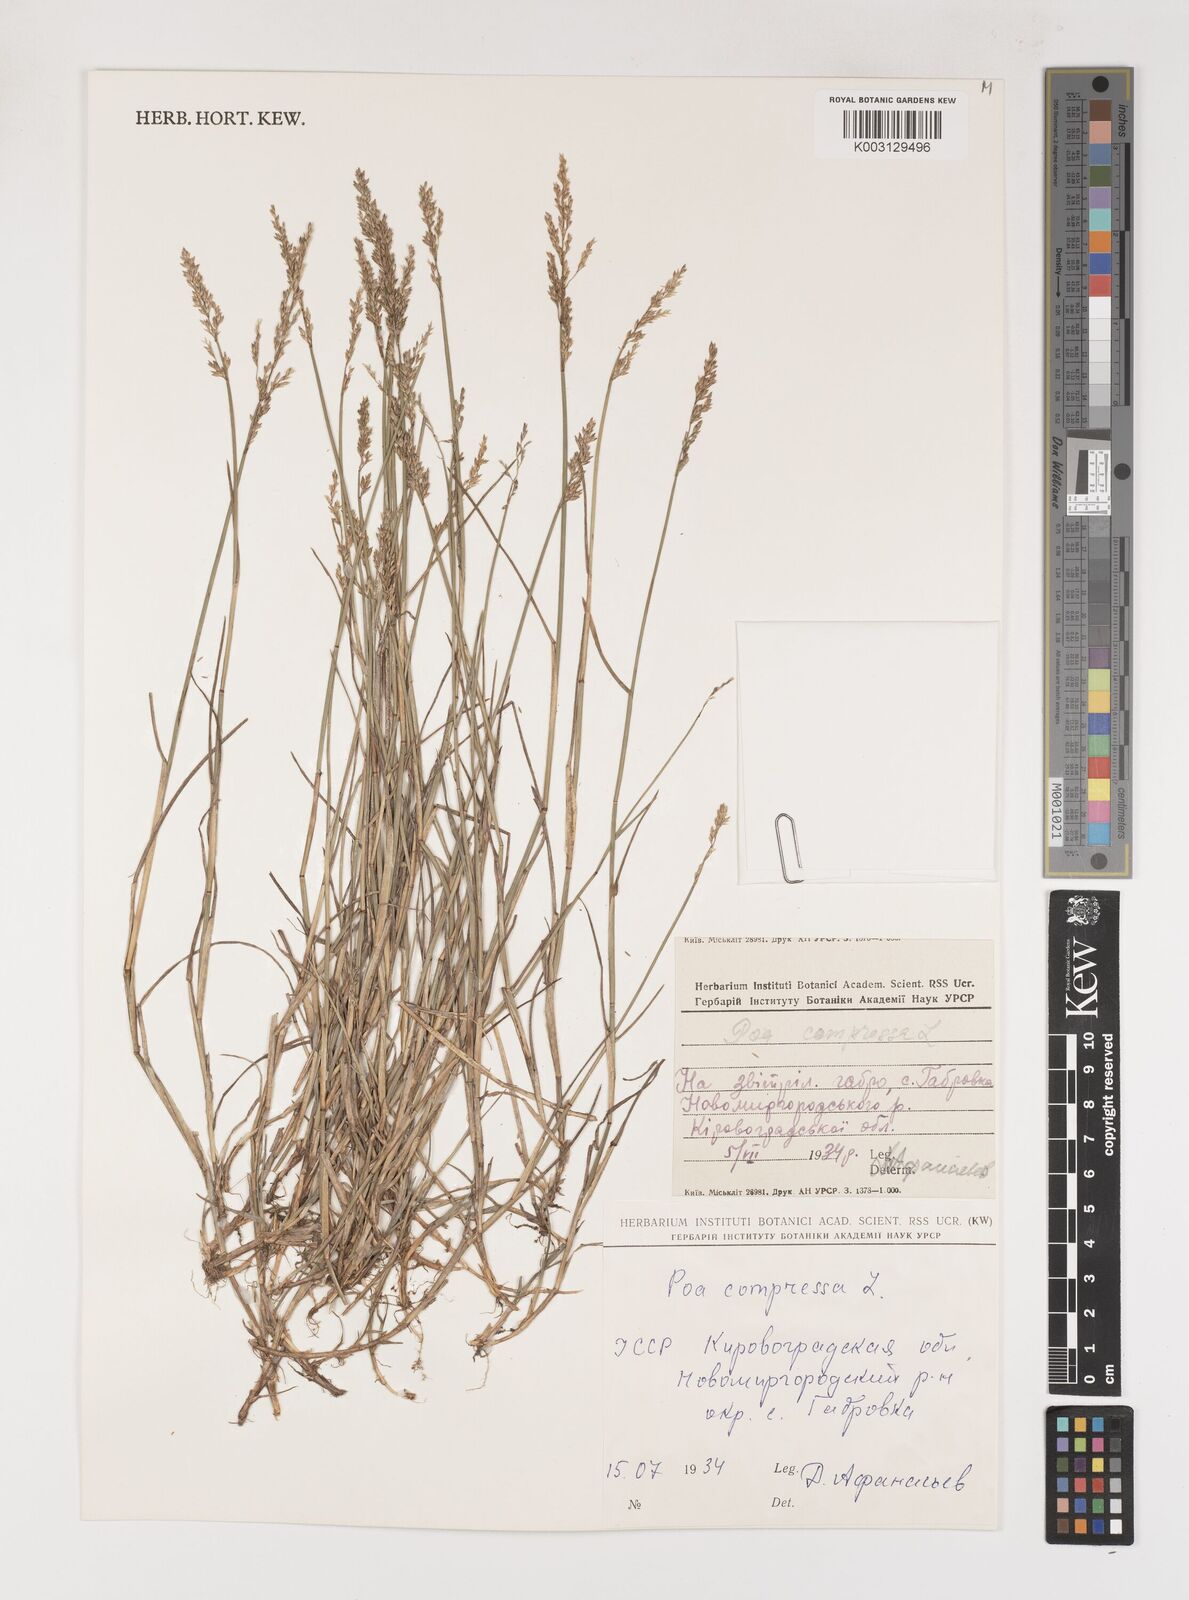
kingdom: Plantae
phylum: Tracheophyta
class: Liliopsida
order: Poales
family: Poaceae
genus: Poa
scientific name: Poa compressa
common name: Canada bluegrass
